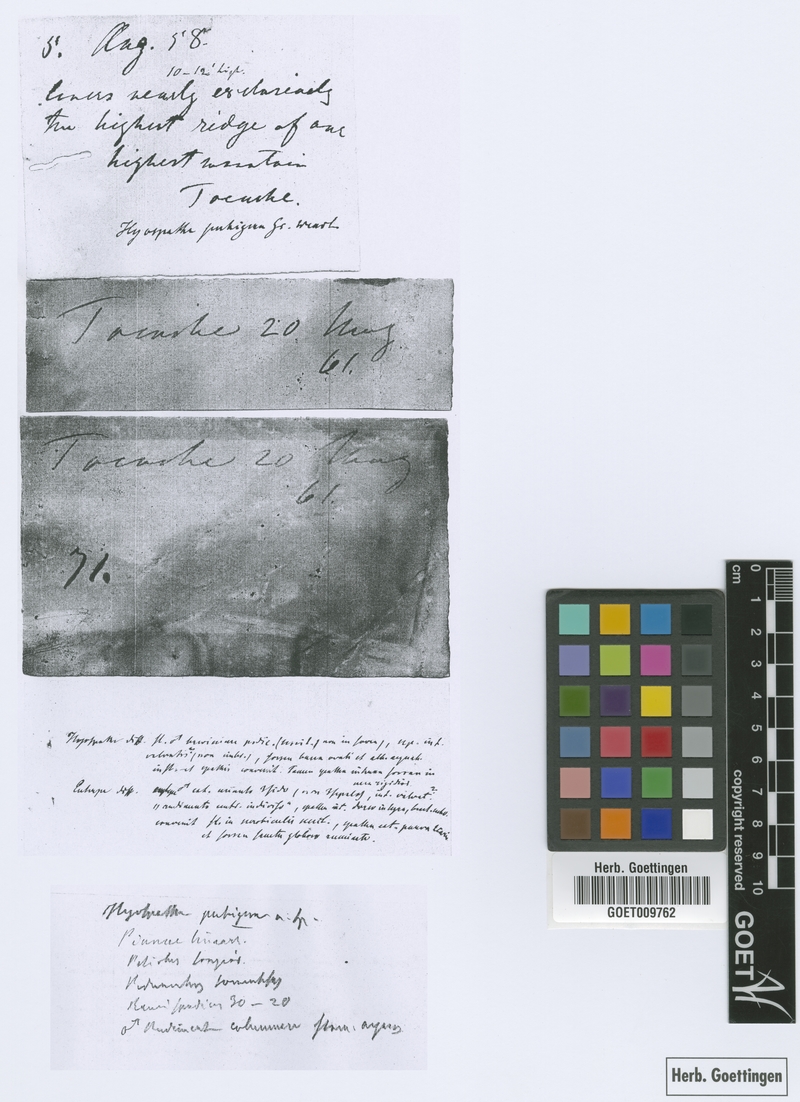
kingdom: Plantae
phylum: Tracheophyta
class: Liliopsida
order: Arecales
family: Arecaceae
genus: Prestoea
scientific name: Prestoea pubigera
